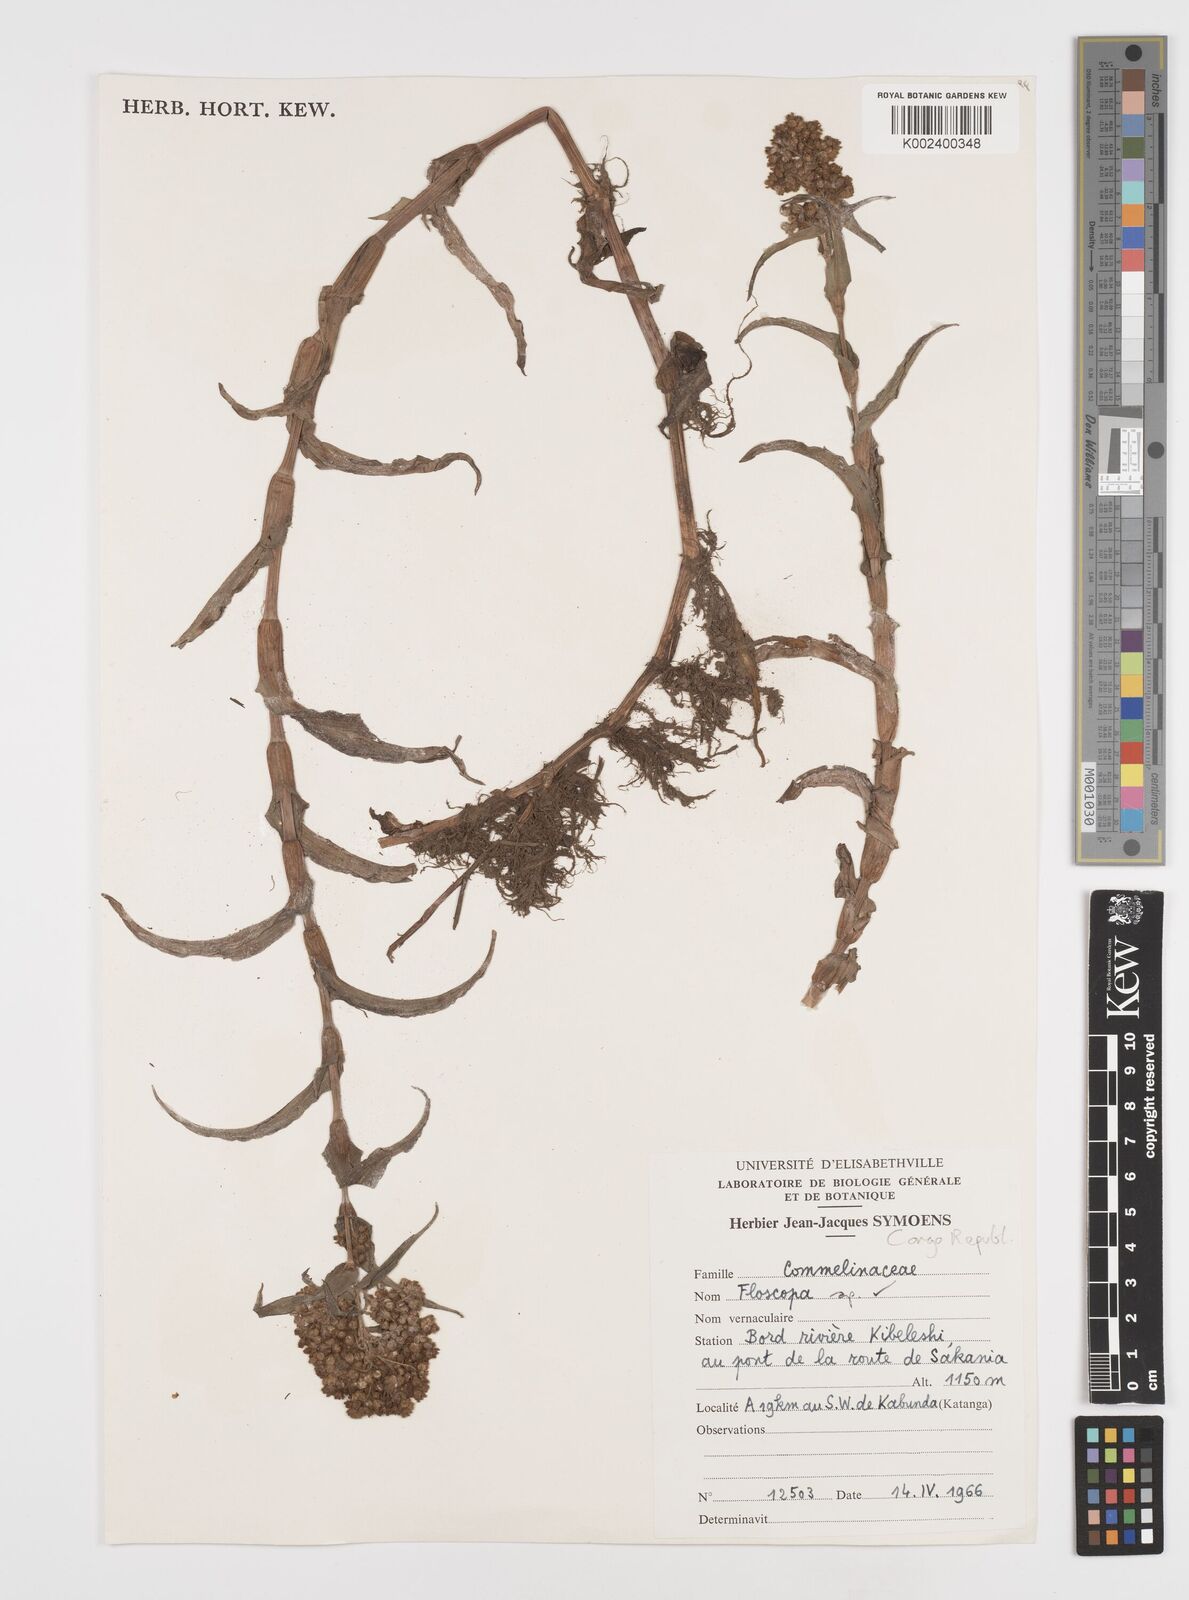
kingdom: Plantae
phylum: Tracheophyta
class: Liliopsida
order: Commelinales
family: Commelinaceae
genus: Floscopa
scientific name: Floscopa
